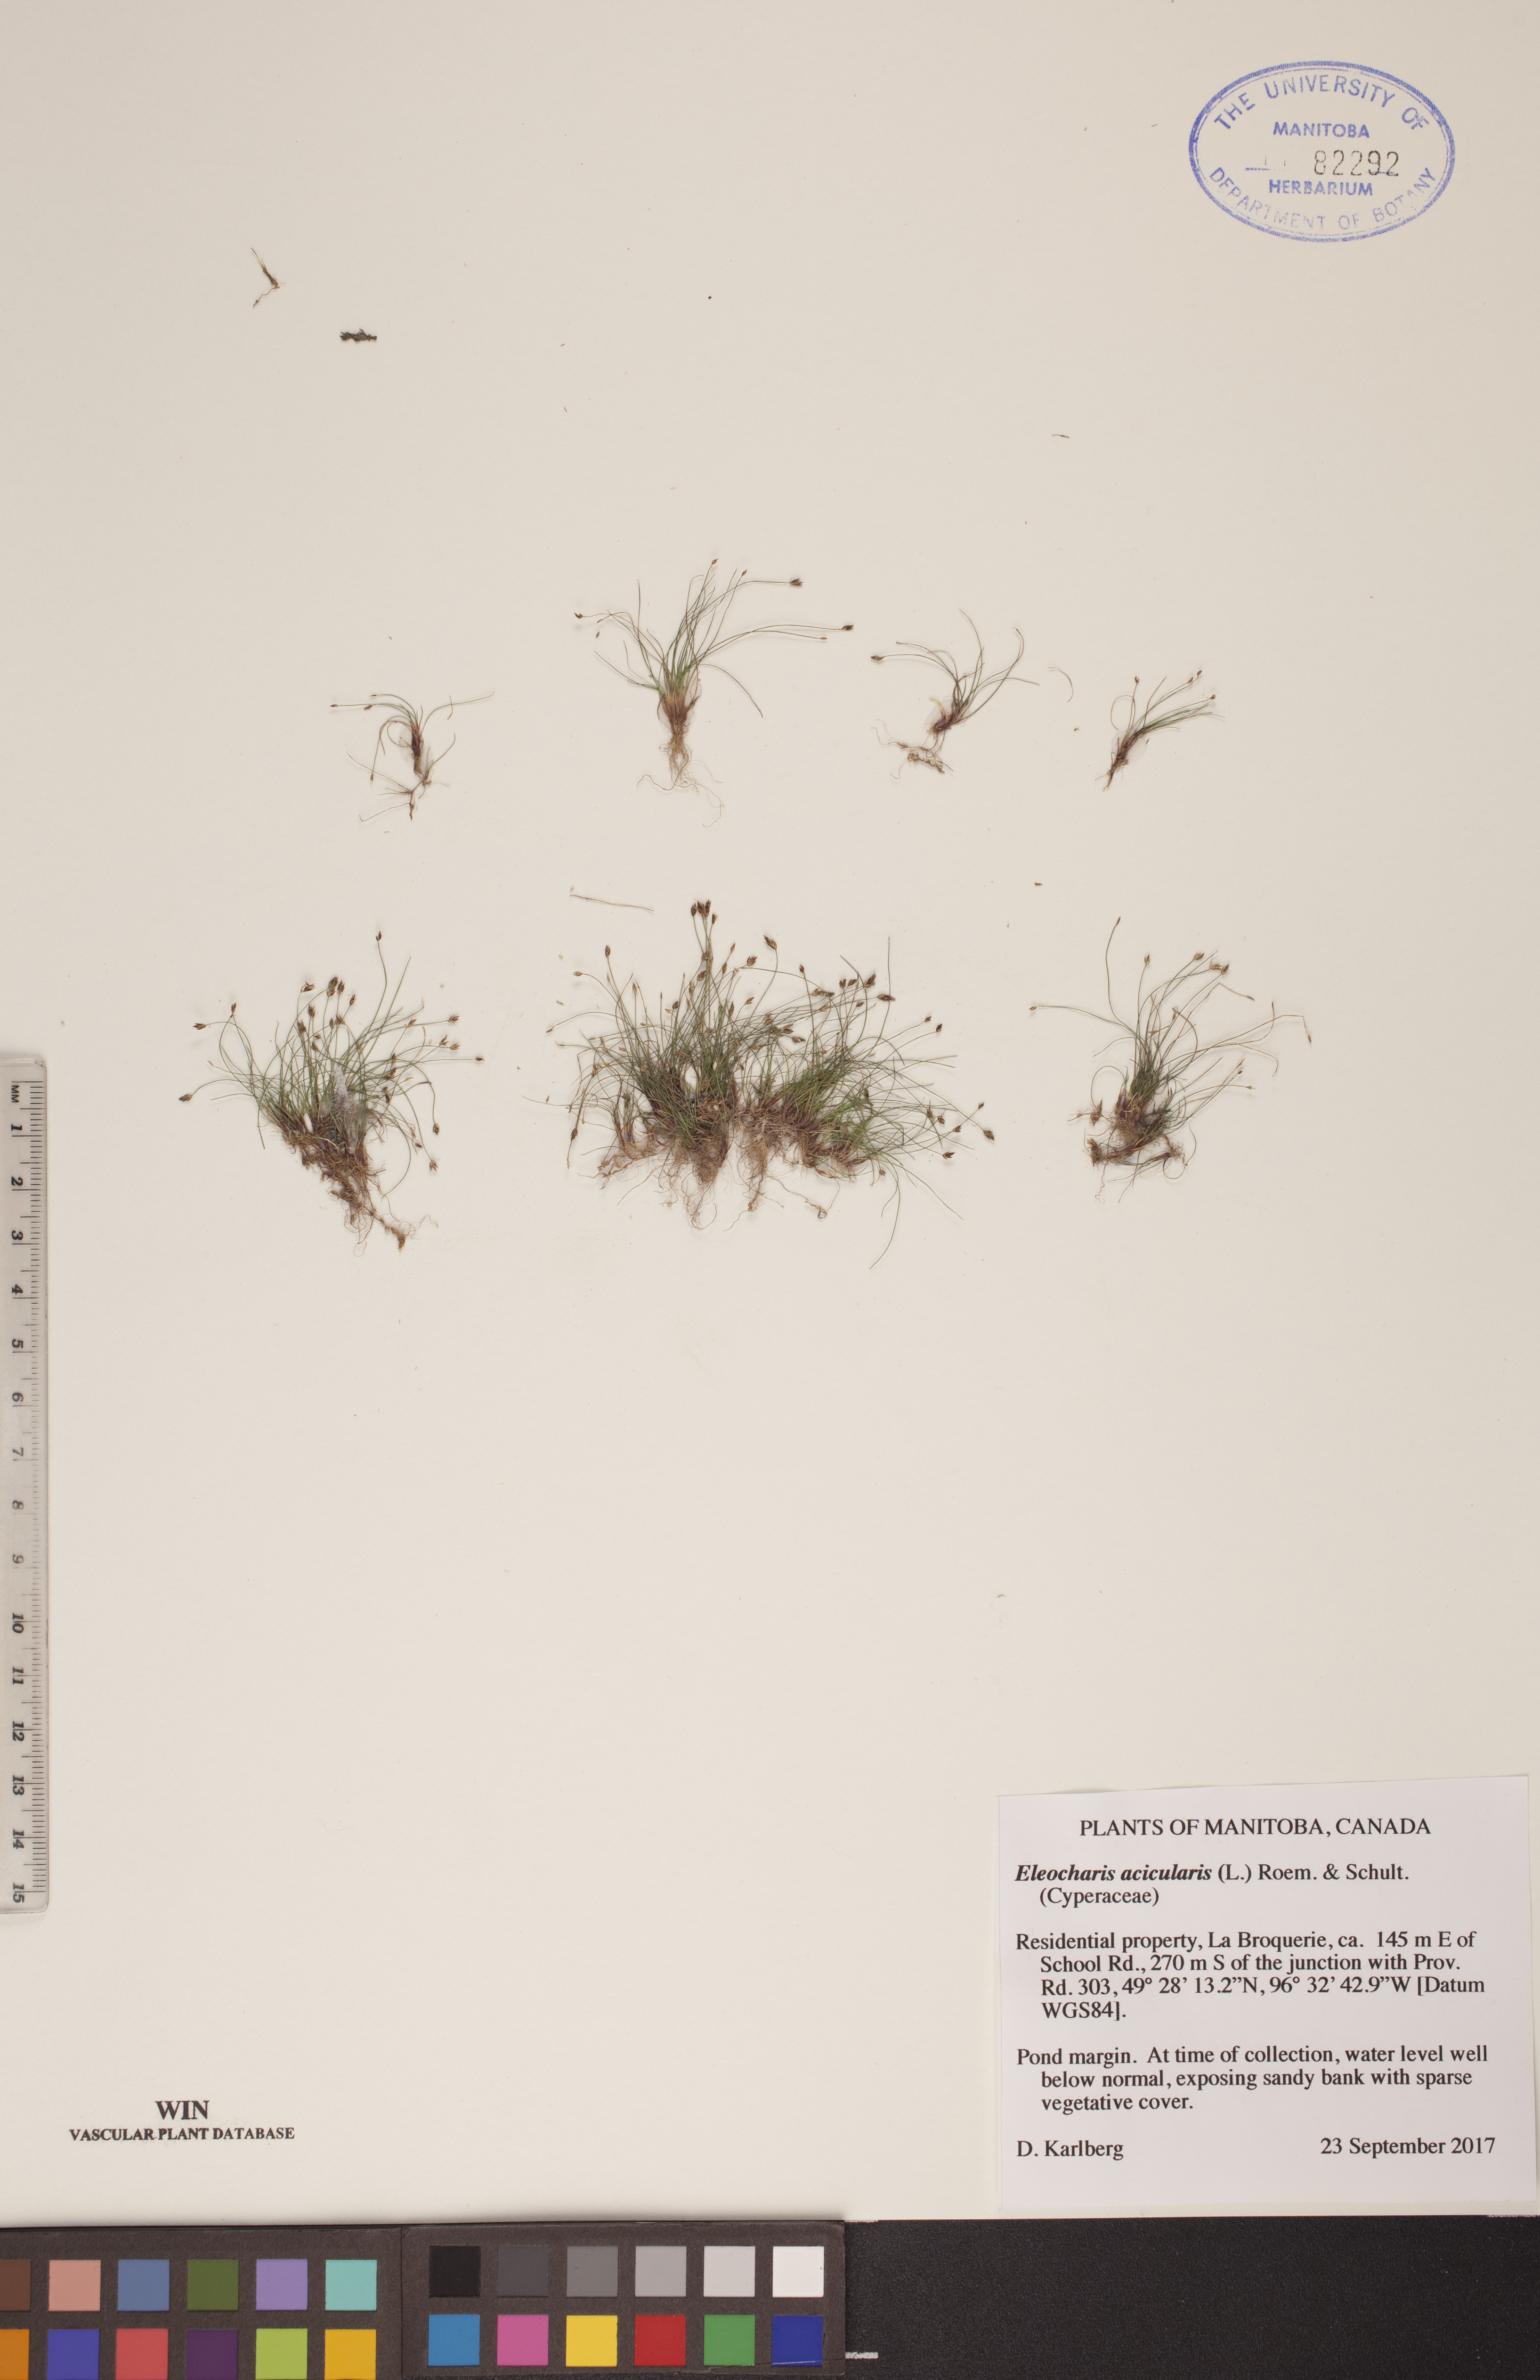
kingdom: Plantae
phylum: Tracheophyta
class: Liliopsida
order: Poales
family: Cyperaceae
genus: Eleocharis
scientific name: Eleocharis acicularis
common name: Needle spike-rush
